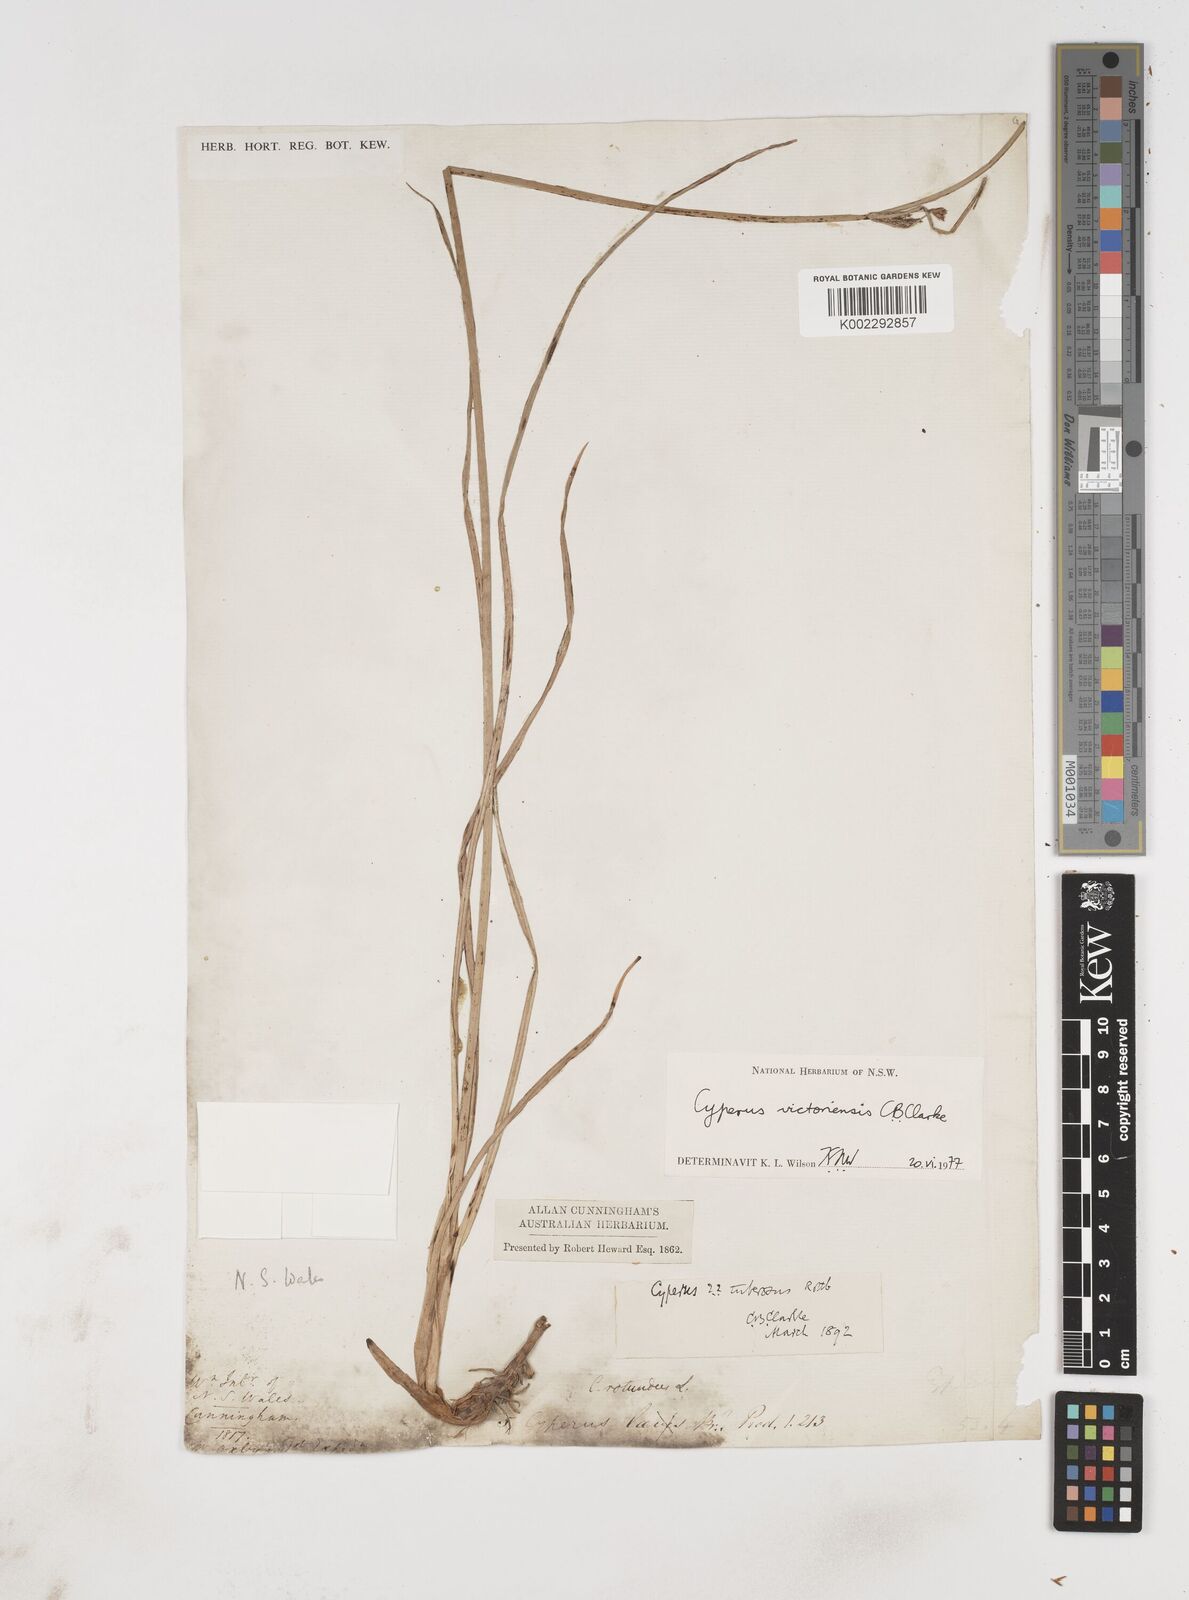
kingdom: Plantae
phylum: Tracheophyta
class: Liliopsida
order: Poales
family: Cyperaceae
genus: Cyperus
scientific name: Cyperus victoriensis
